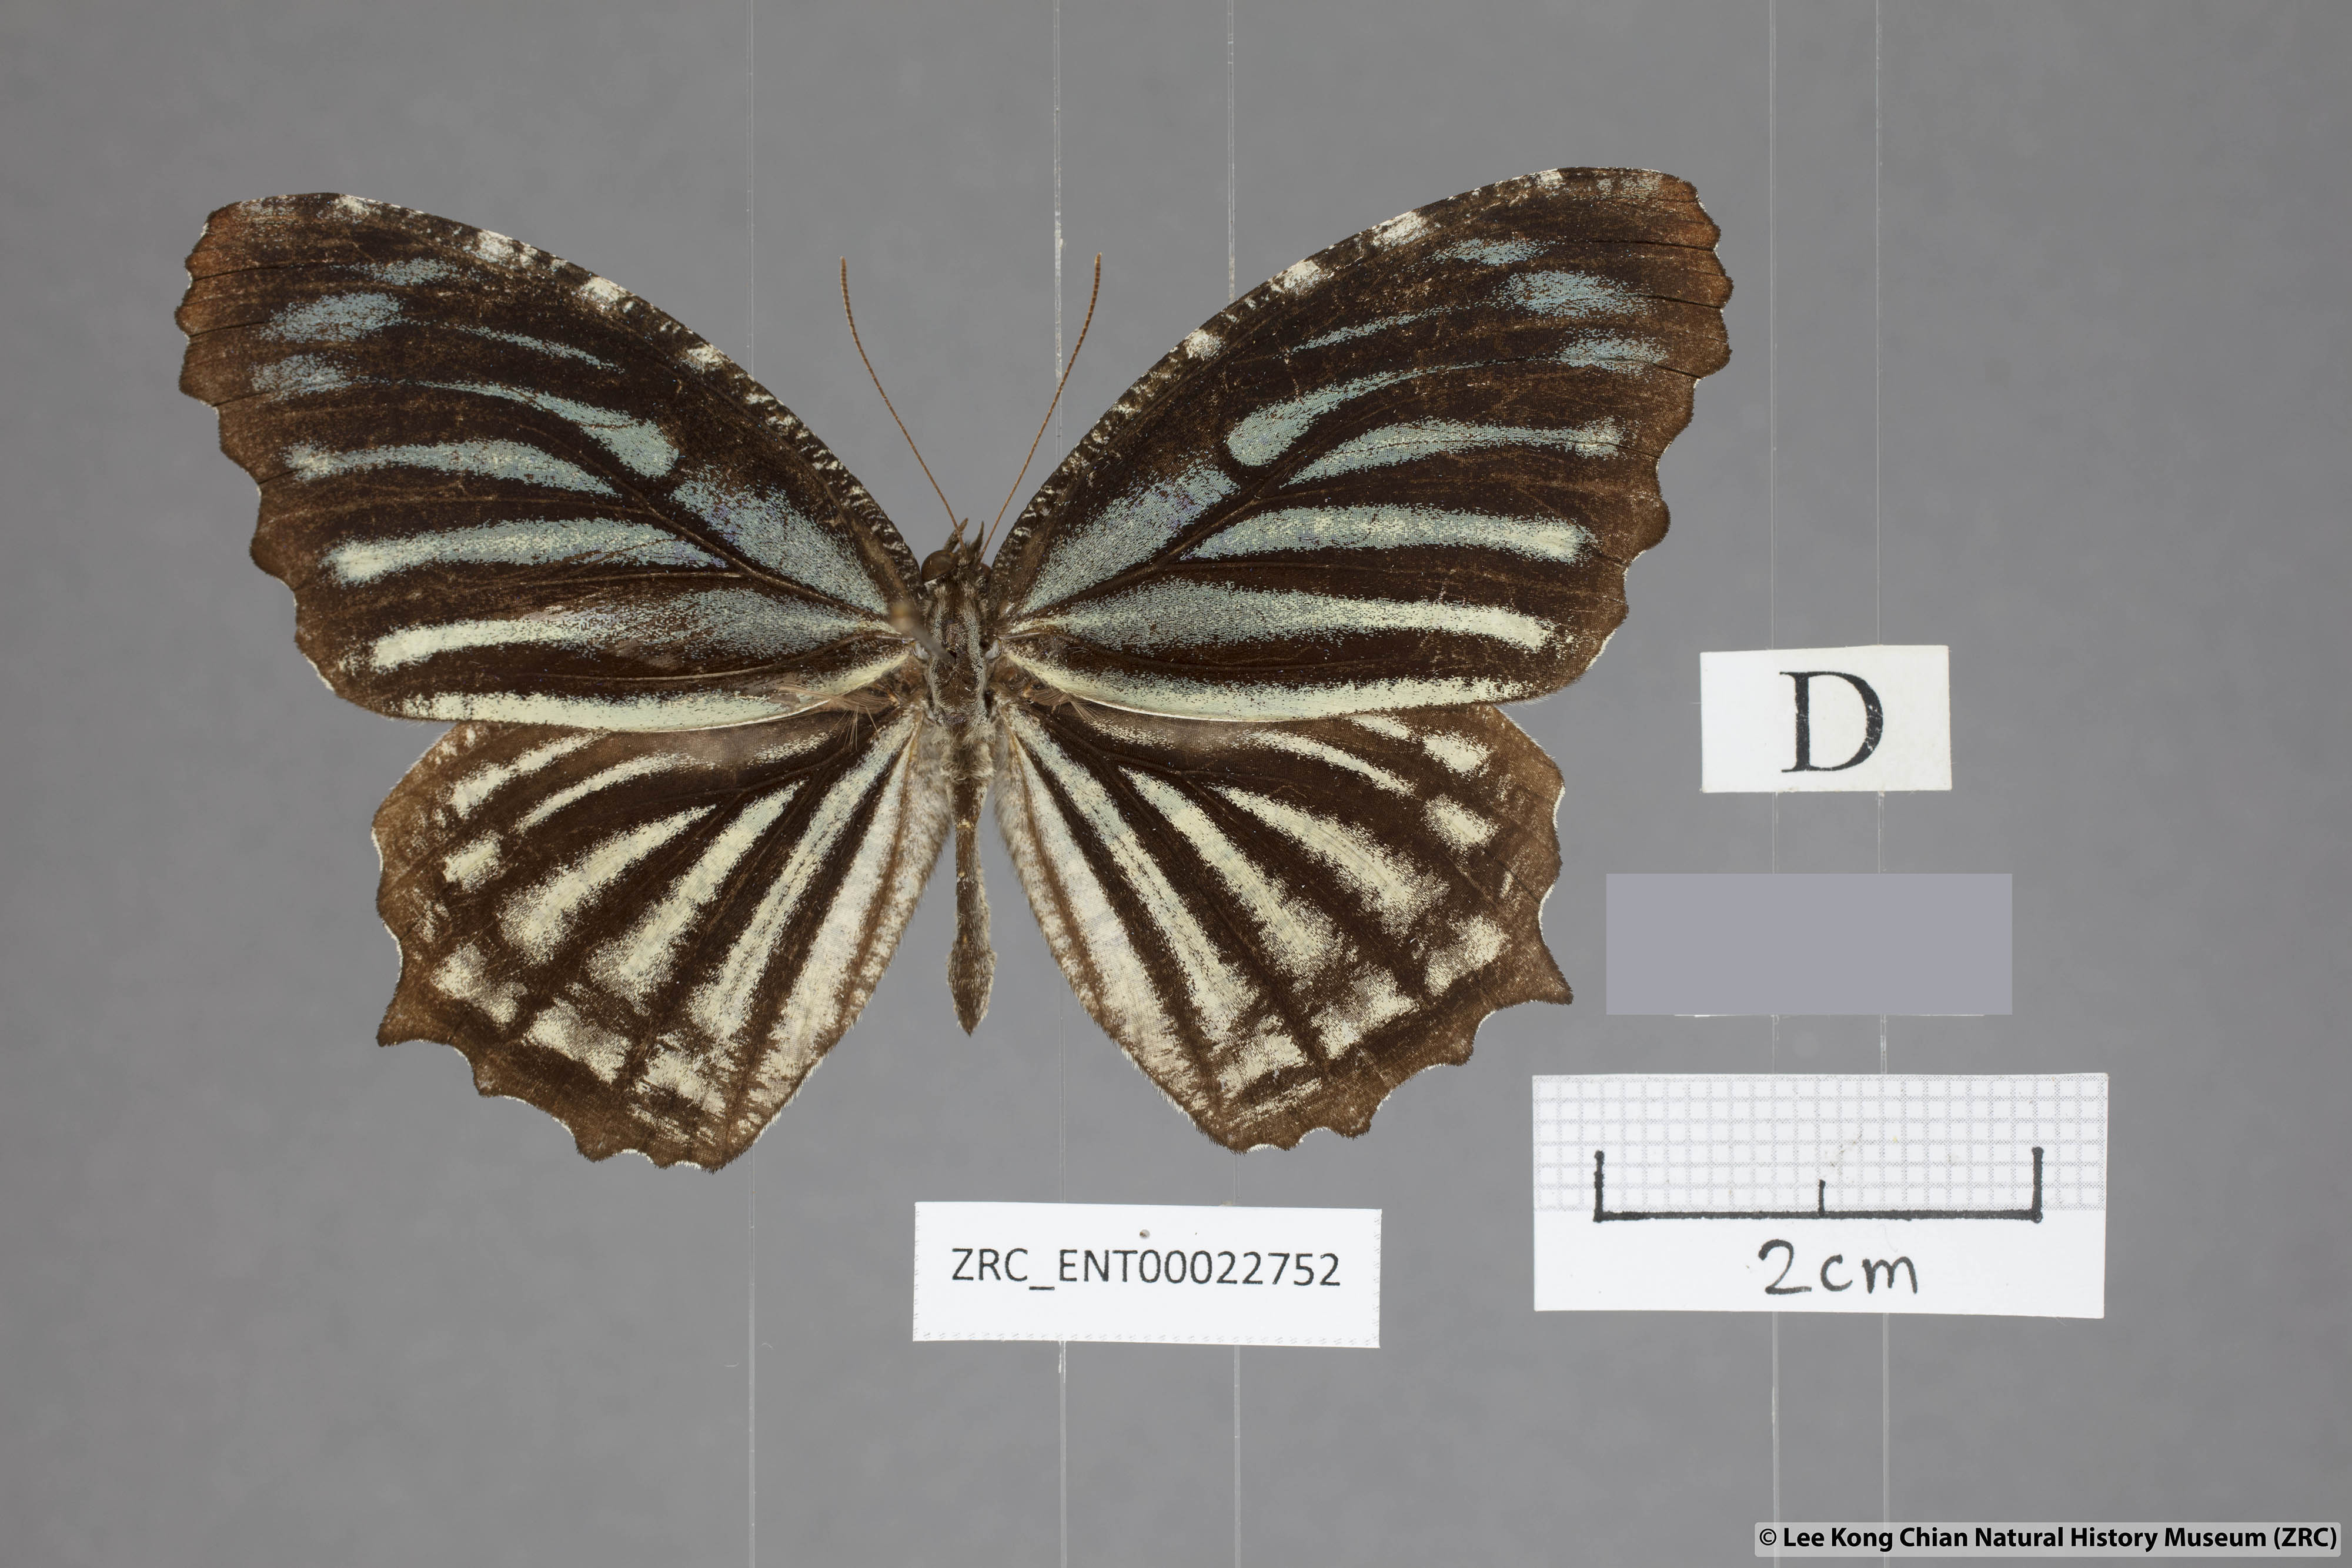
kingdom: Animalia
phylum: Arthropoda
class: Insecta
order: Lepidoptera
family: Nymphalidae
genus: Elymnias
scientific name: Elymnias nesaea
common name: Tiger palmfly
